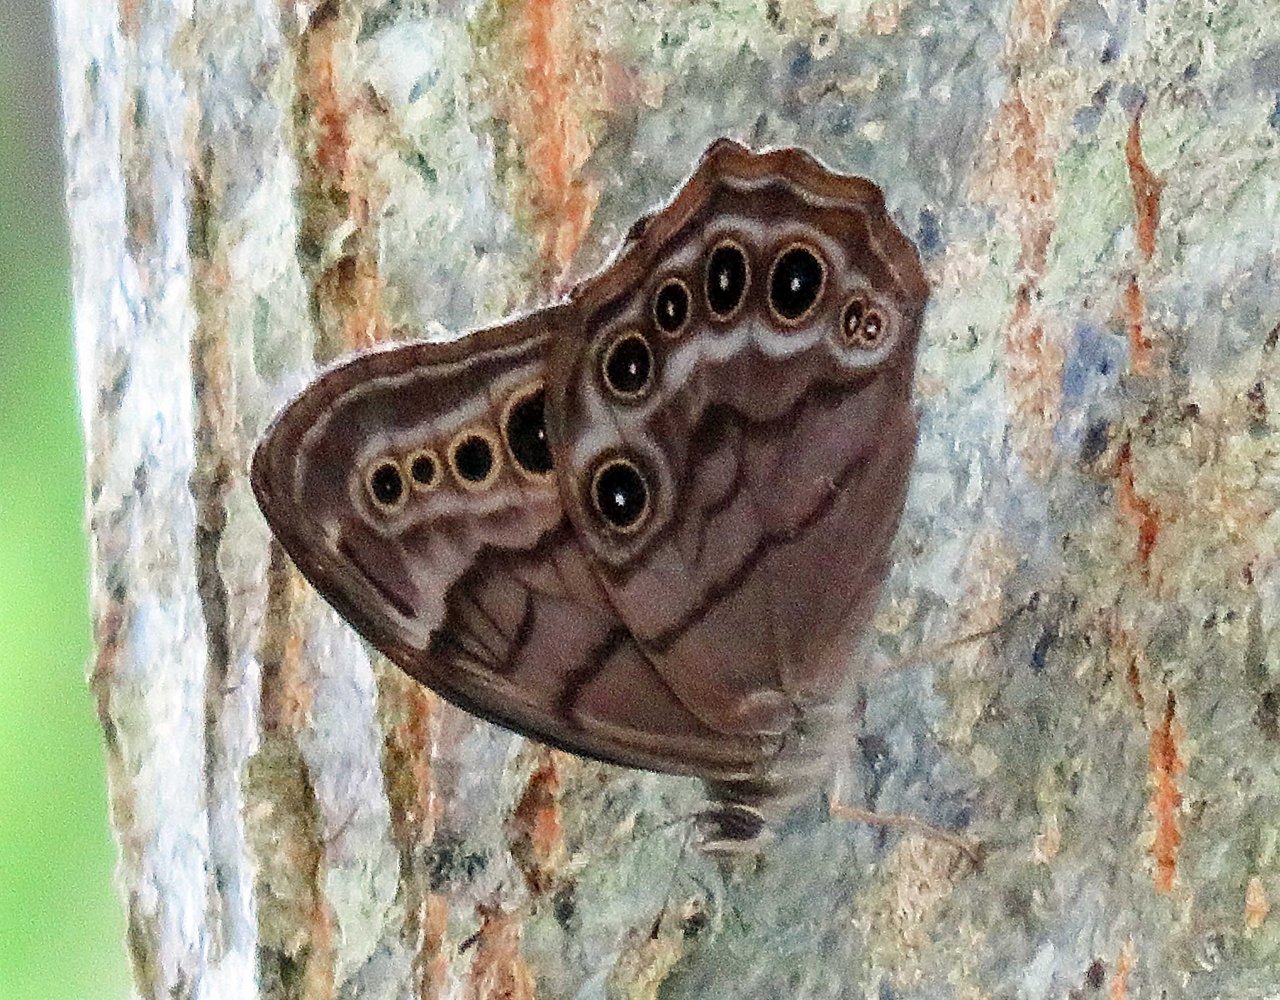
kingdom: Animalia
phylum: Arthropoda
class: Insecta
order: Lepidoptera
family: Nymphalidae
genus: Lethe
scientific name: Lethe anthedon
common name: Northern Pearly-Eye
